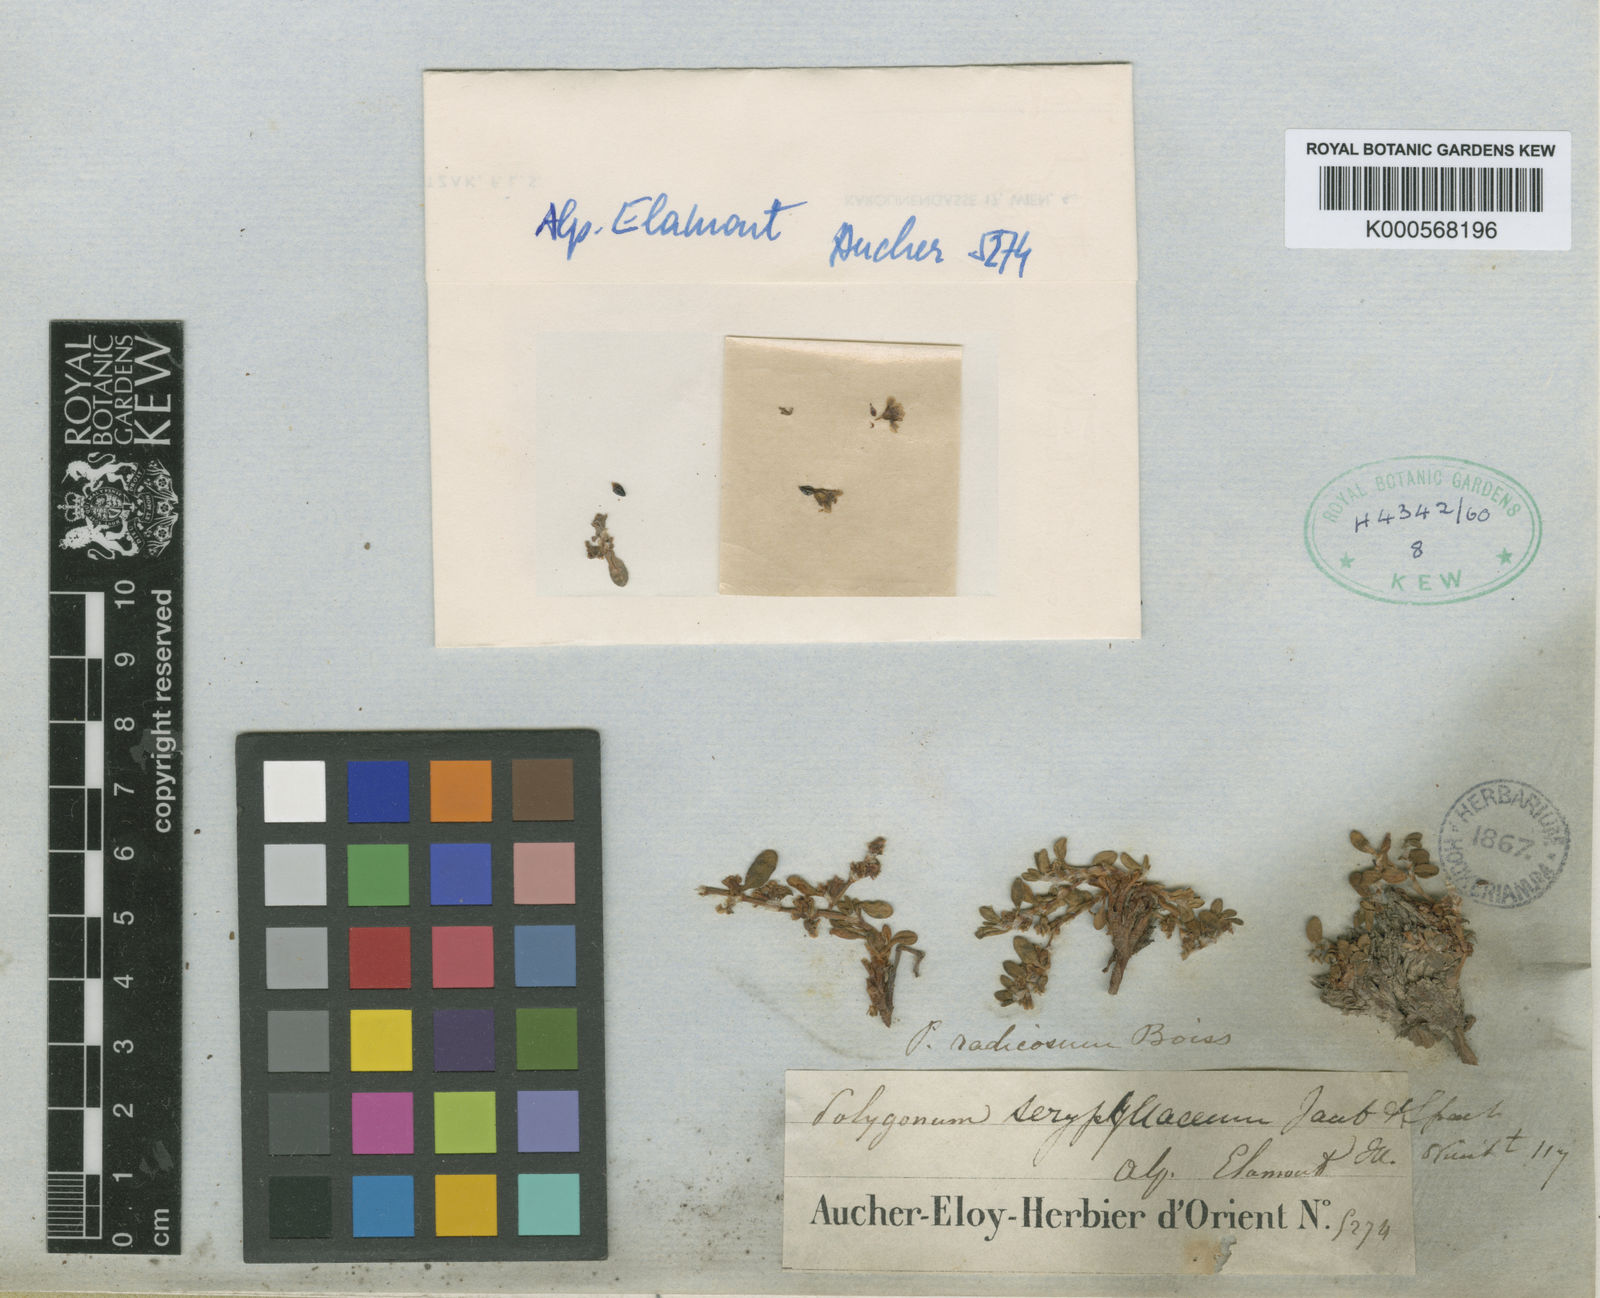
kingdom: Plantae
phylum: Tracheophyta
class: Magnoliopsida
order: Caryophyllales
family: Polygonaceae
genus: Polygonum
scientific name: Polygonum cognatum
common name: Indian knotgrass
